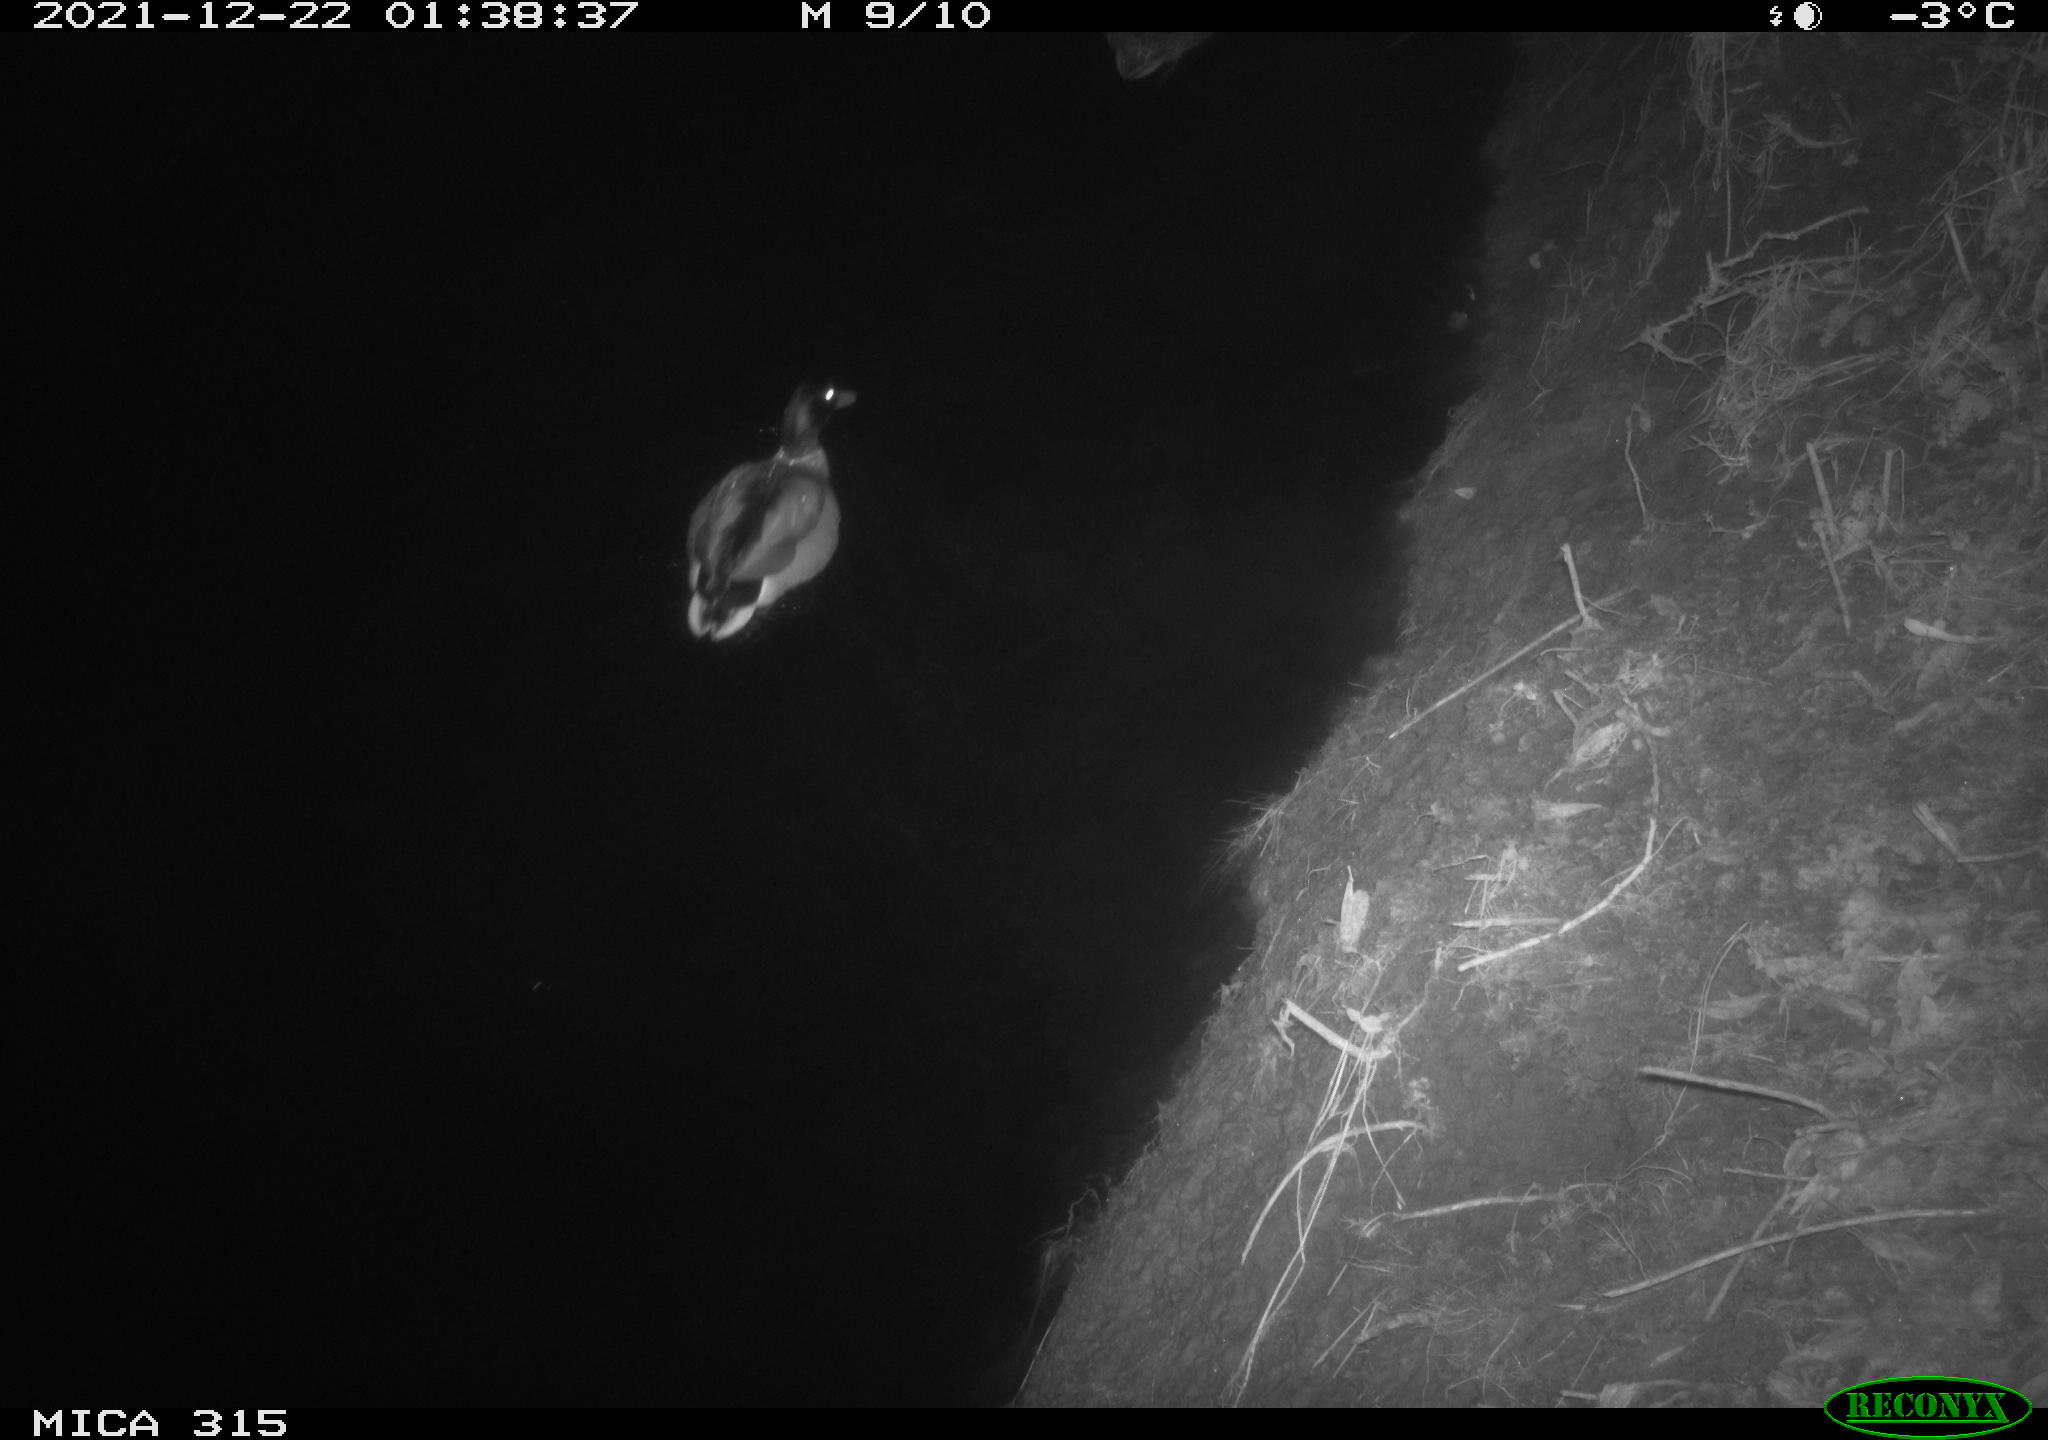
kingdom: Animalia
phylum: Chordata
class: Aves
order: Anseriformes
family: Anatidae
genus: Anas
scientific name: Anas
